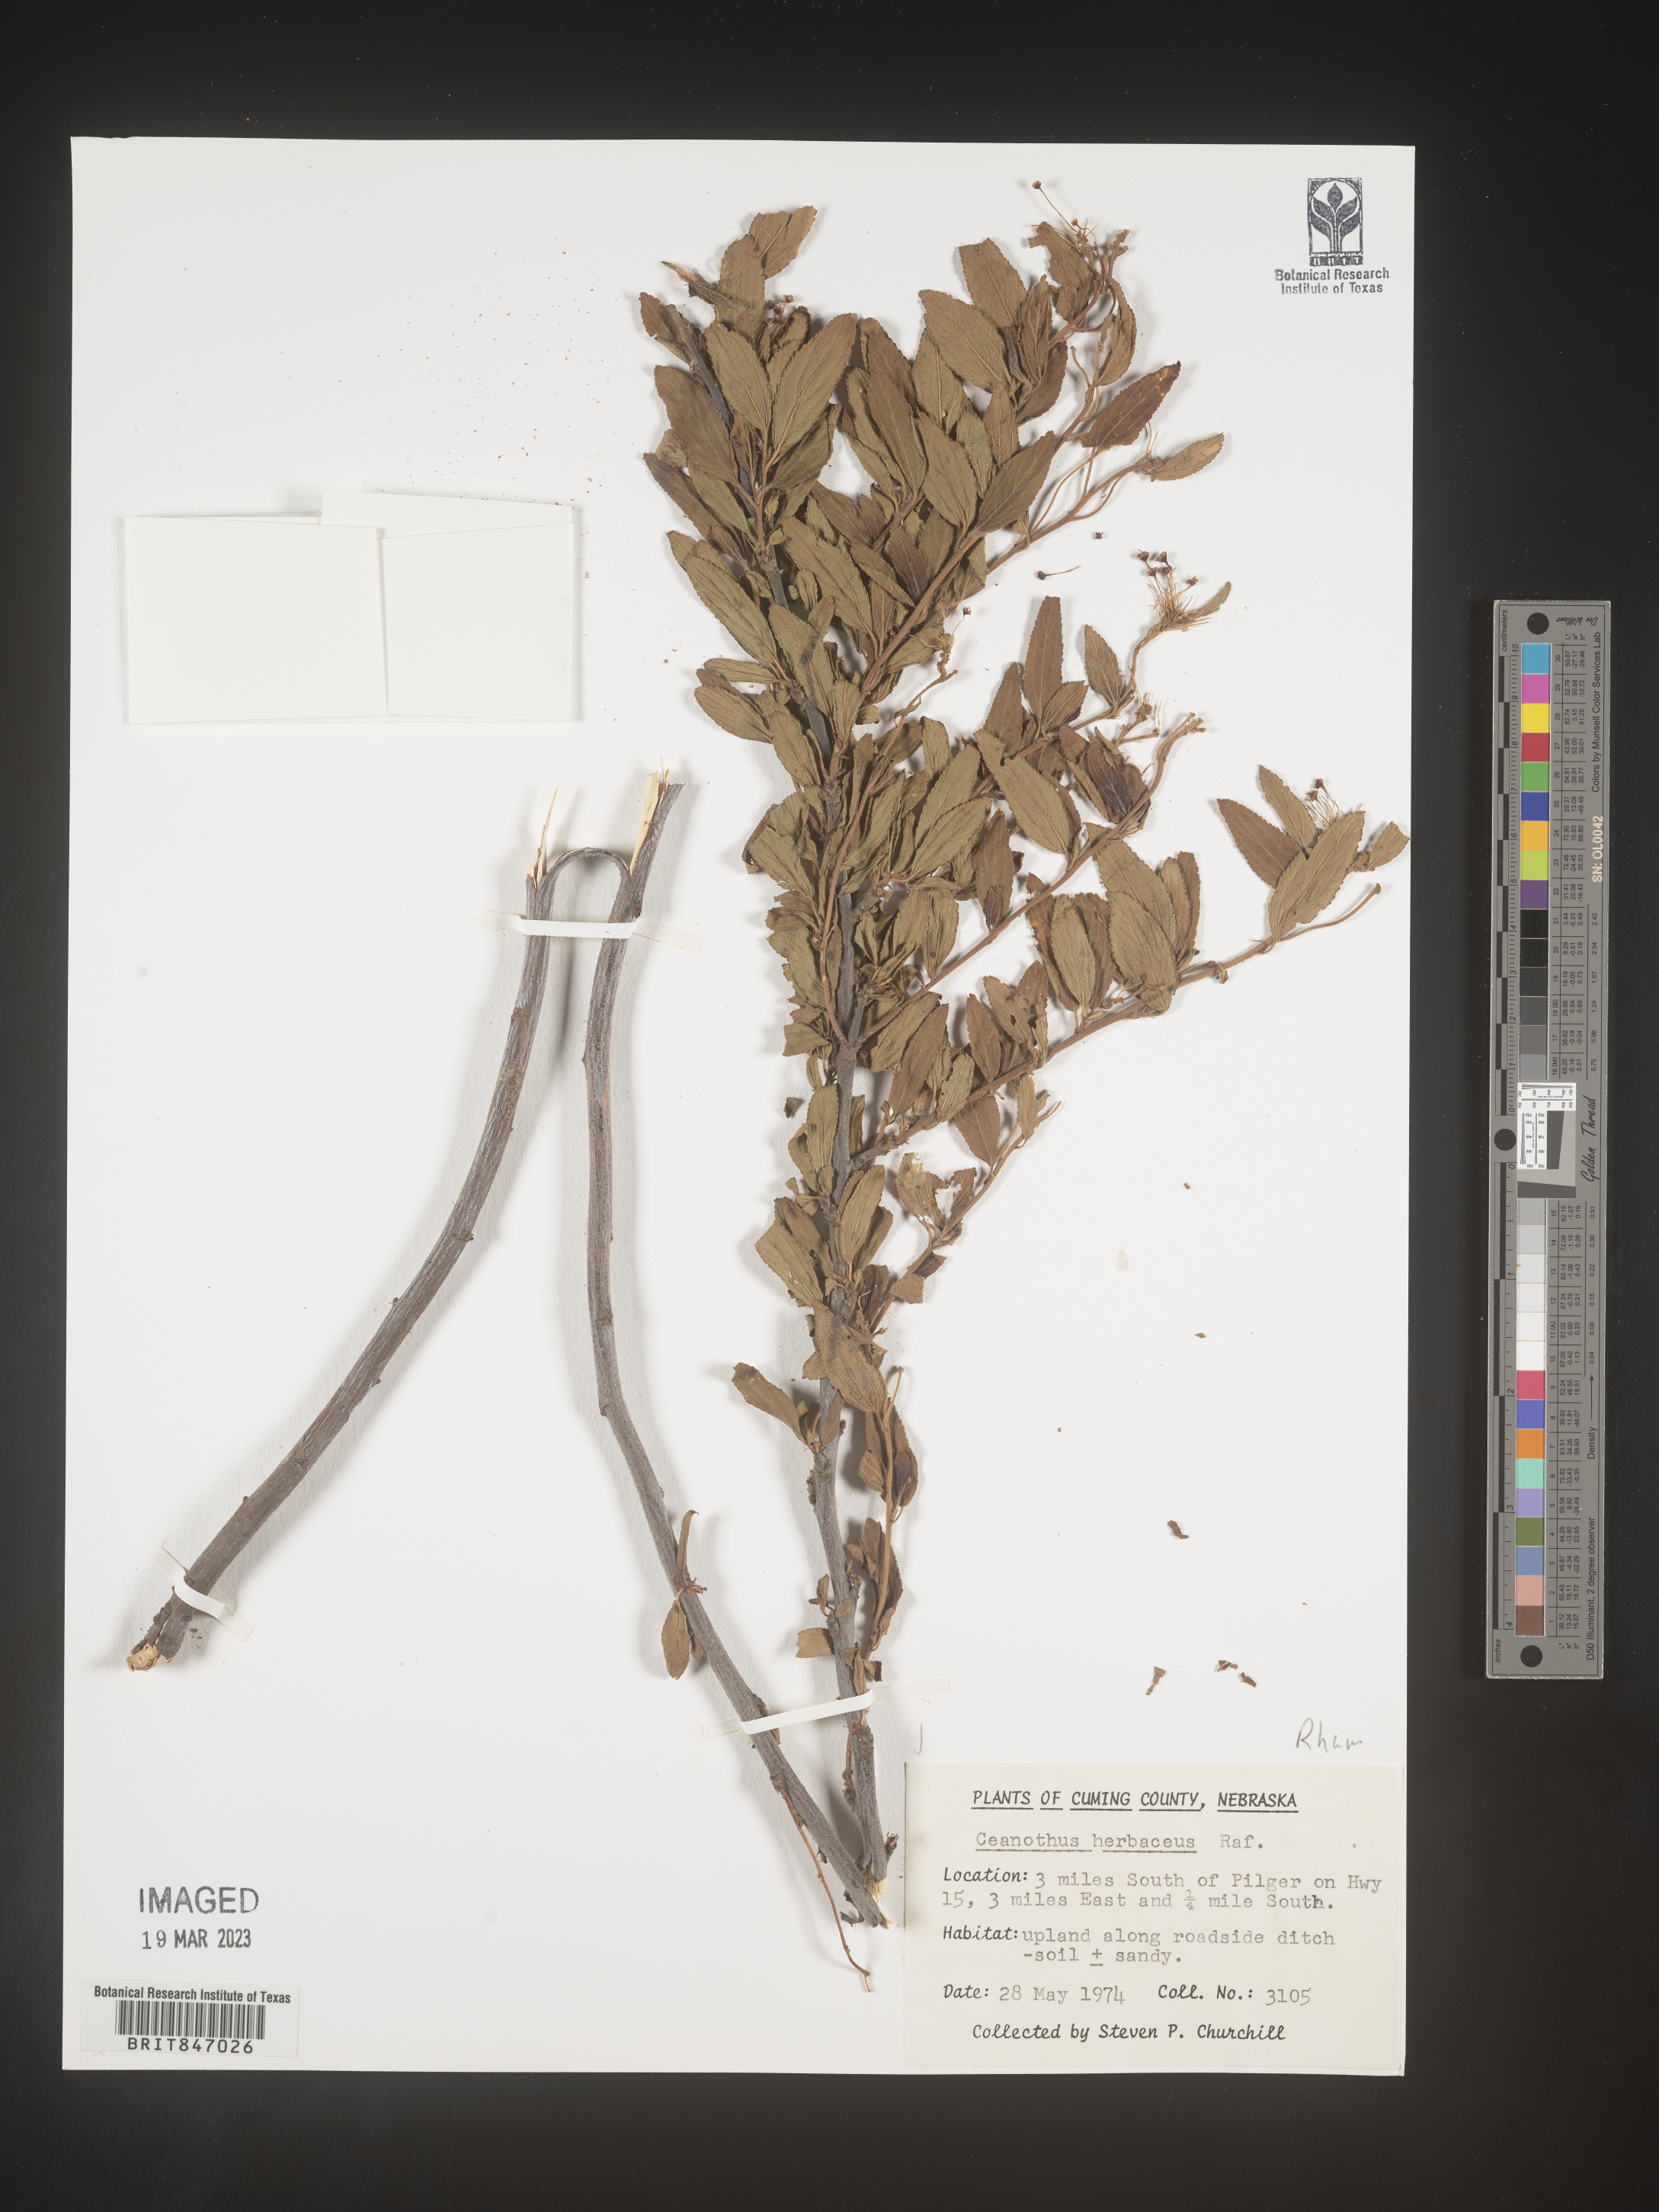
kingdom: Plantae
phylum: Tracheophyta
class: Magnoliopsida
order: Rosales
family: Rhamnaceae
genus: Ceanothus
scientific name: Ceanothus herbaceus
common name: Inland ceanothus
